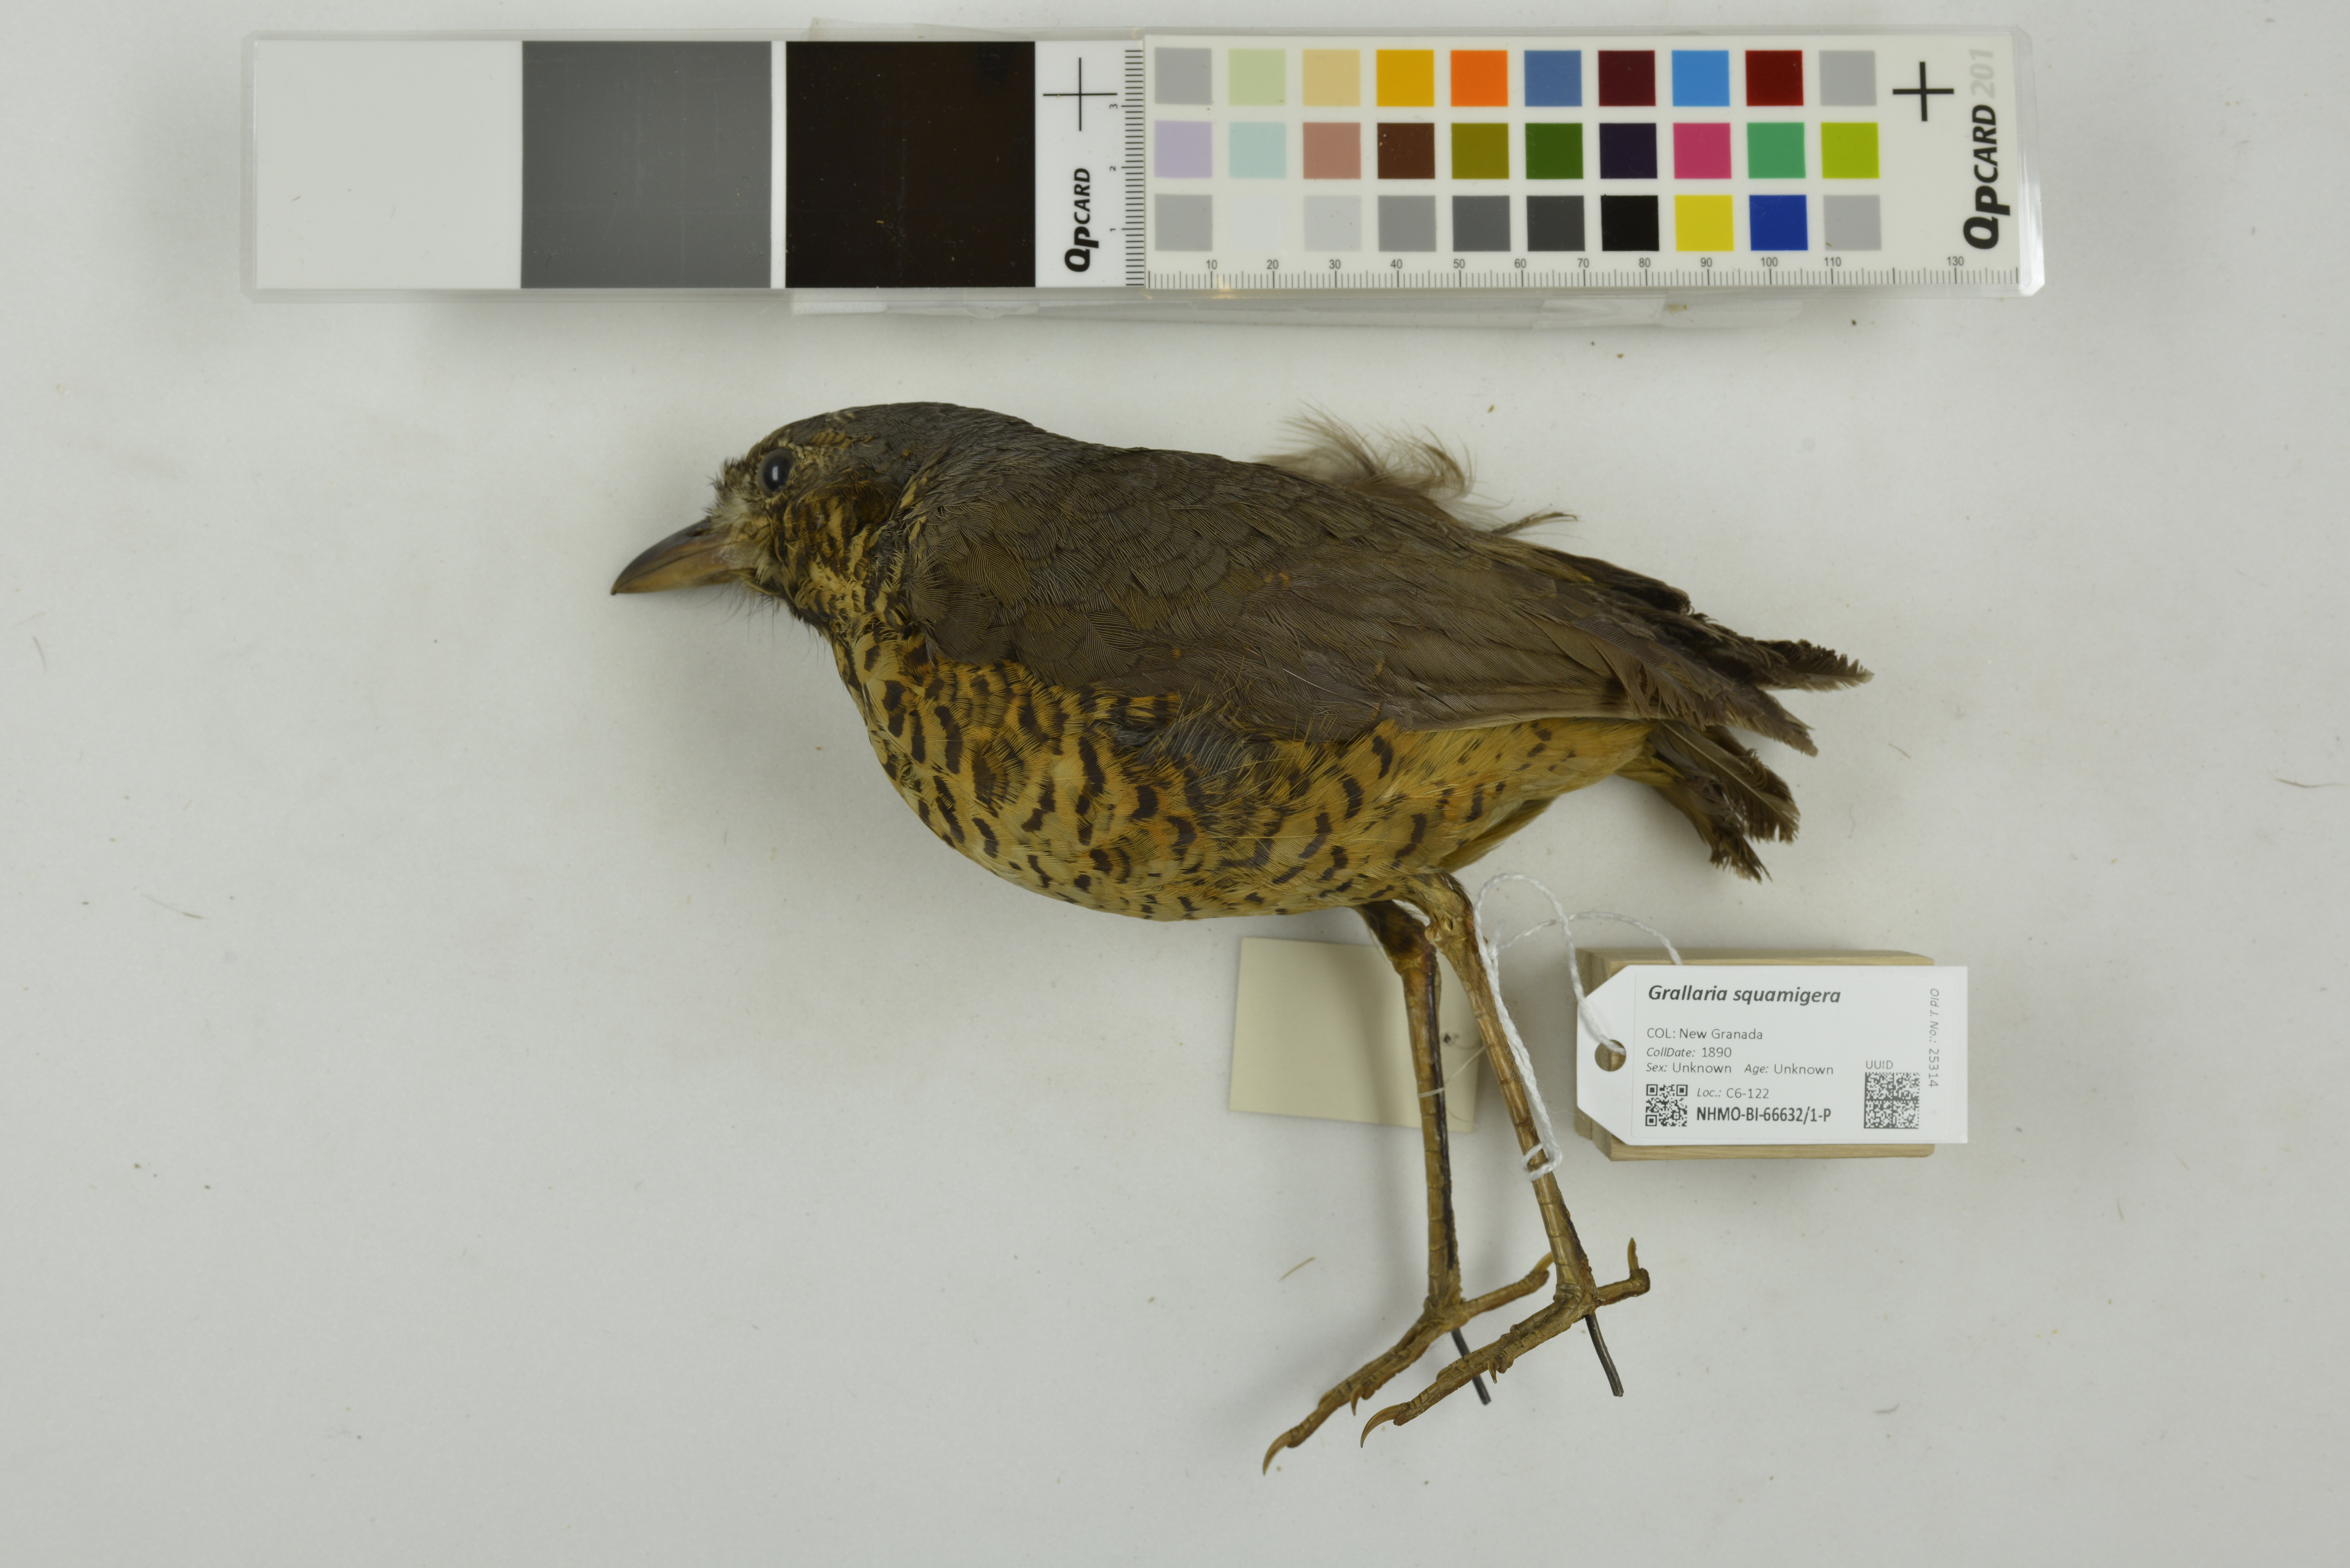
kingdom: Animalia
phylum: Chordata
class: Aves
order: Passeriformes
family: Grallariidae
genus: Grallaria
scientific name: Grallaria squamigera
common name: Undulated antpitta
